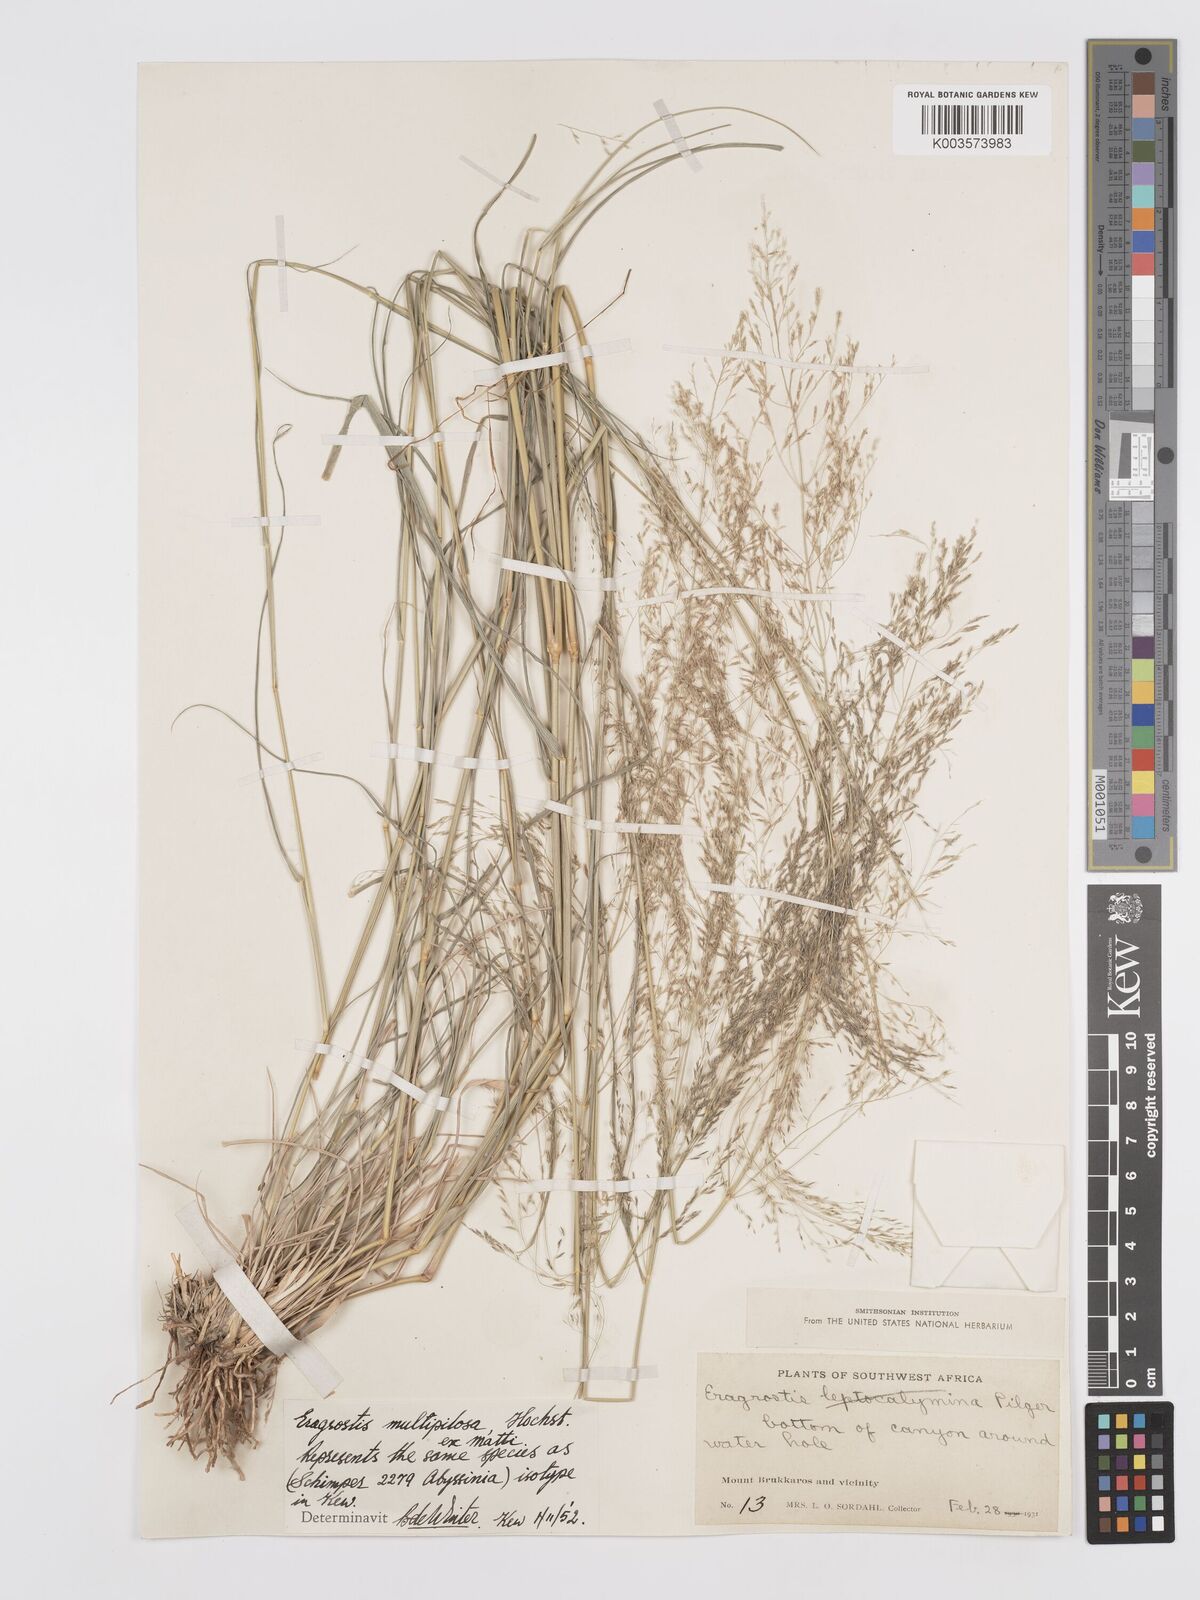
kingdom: Plantae
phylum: Tracheophyta
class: Liliopsida
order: Poales
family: Poaceae
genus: Eragrostis
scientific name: Eragrostis cylindriflora
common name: Cylinderflower lovegrass
